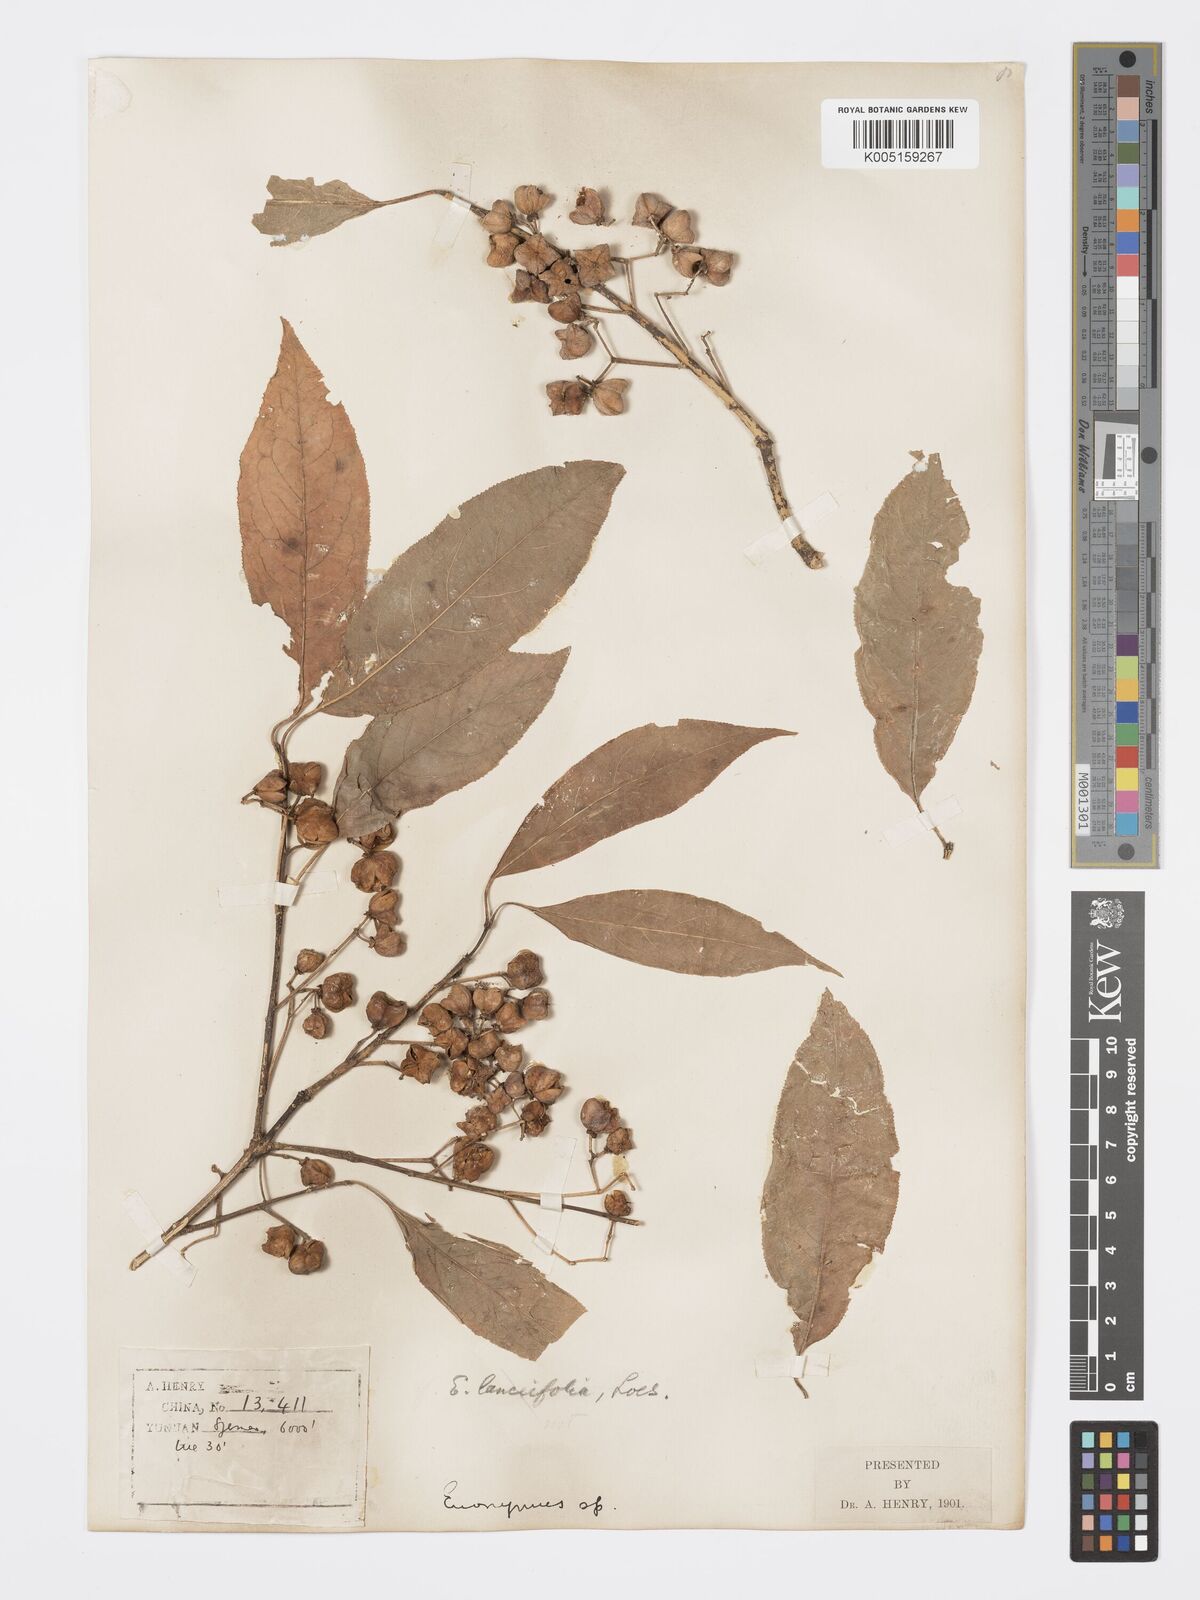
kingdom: Plantae
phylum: Tracheophyta
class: Magnoliopsida
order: Celastrales
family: Celastraceae
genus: Euonymus
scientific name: Euonymus hamiltonianus
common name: Hamilton's spindletree
